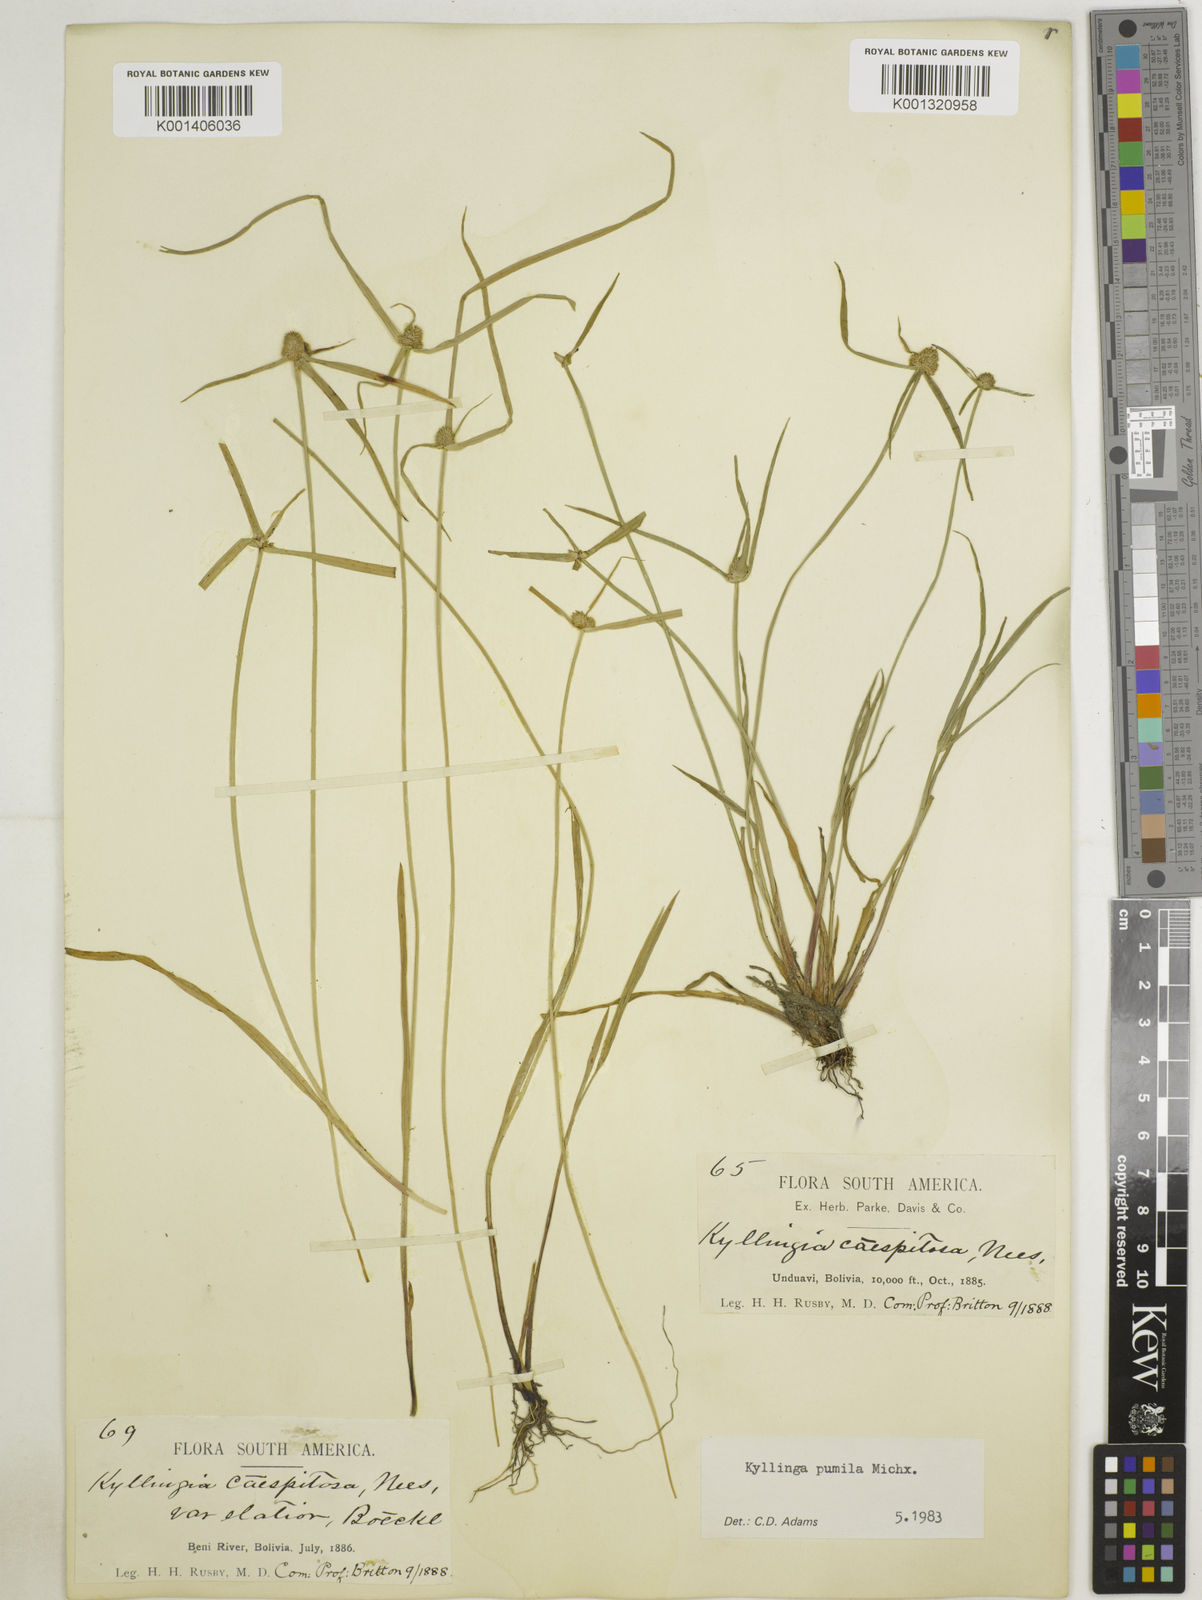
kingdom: Plantae
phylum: Tracheophyta
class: Liliopsida
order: Poales
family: Cyperaceae
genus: Cyperus
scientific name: Cyperus
